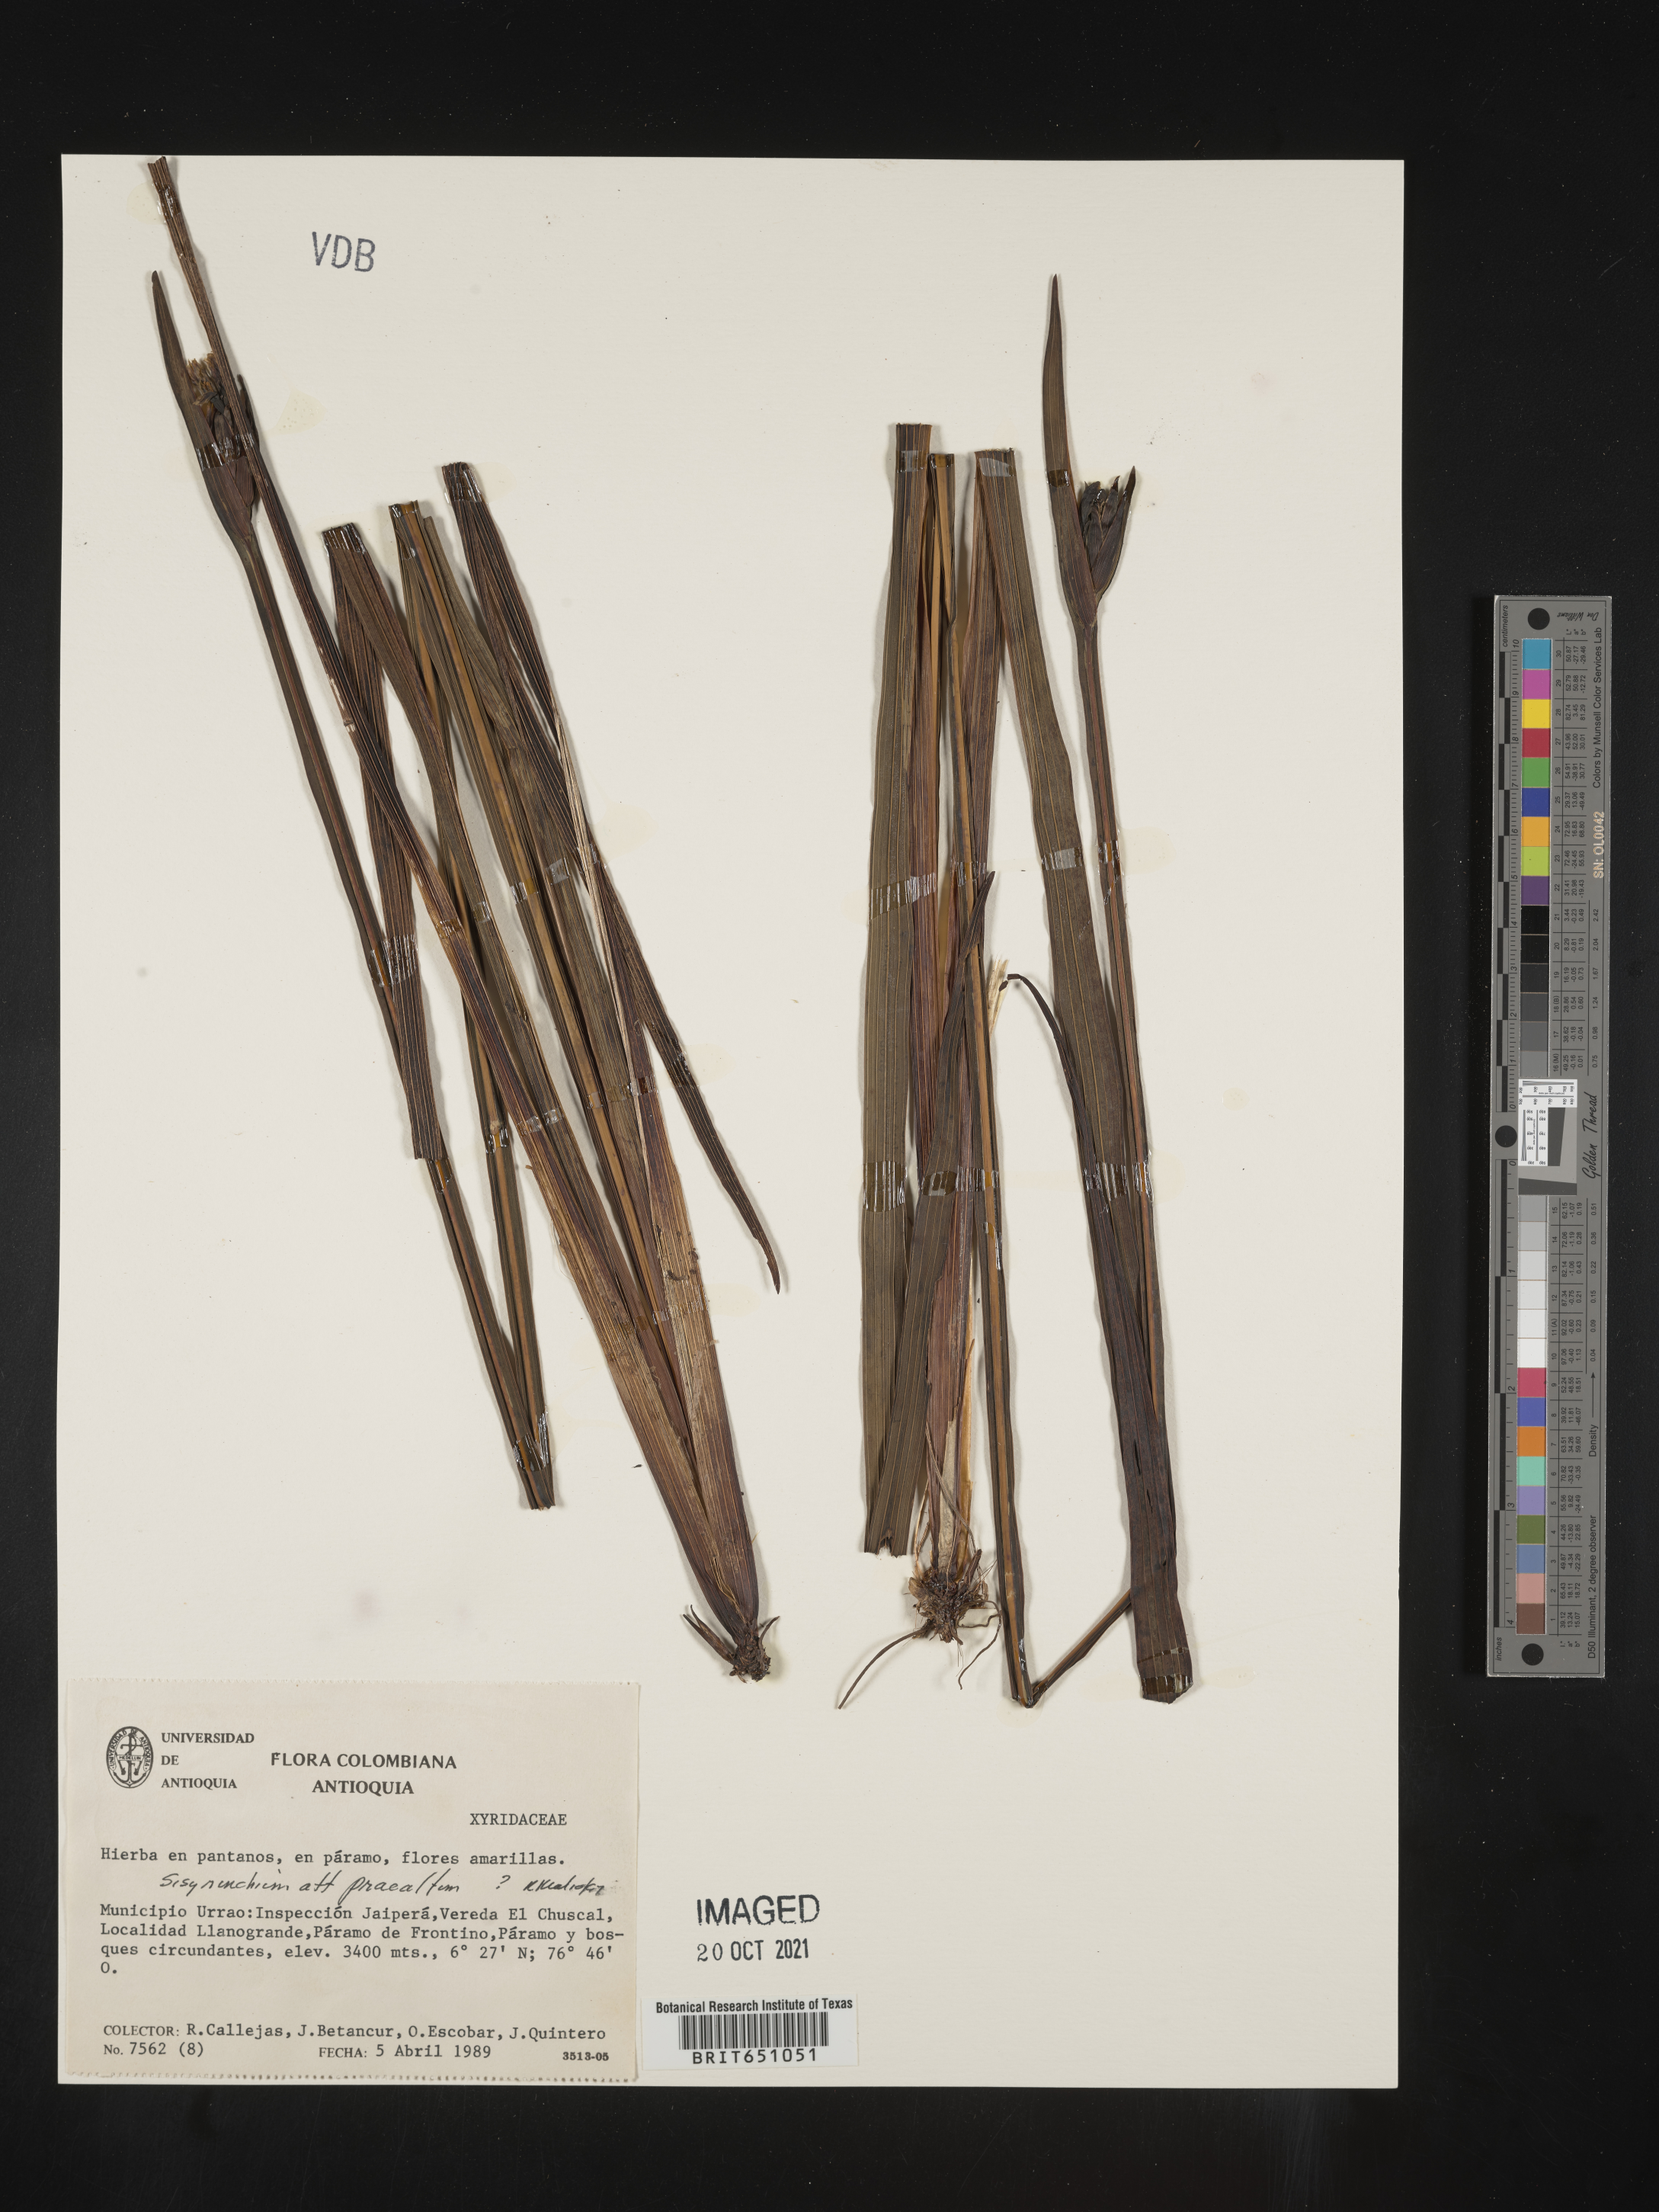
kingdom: Plantae
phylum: Tracheophyta
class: Liliopsida
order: Asparagales
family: Iridaceae
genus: Sisyrinchium
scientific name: Sisyrinchium
